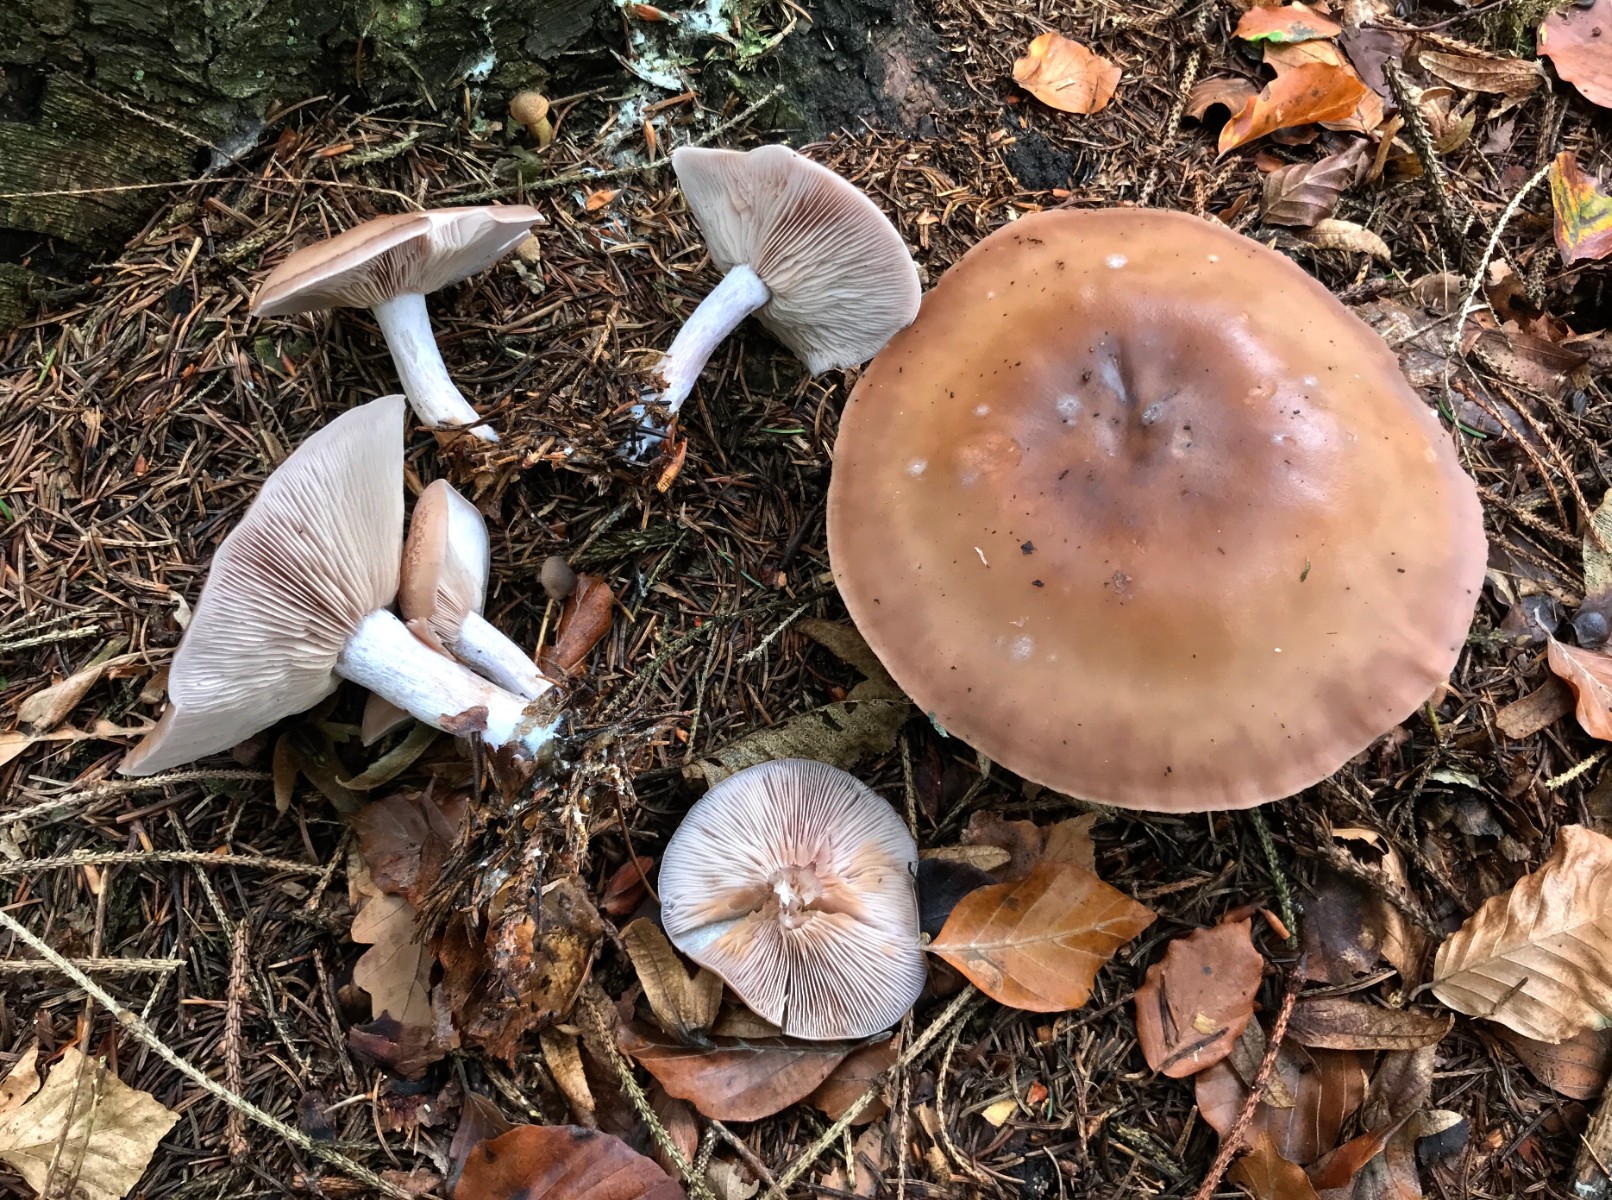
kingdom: Fungi
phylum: Basidiomycota
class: Agaricomycetes
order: Agaricales
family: Tricholomataceae
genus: Lepista
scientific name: Lepista nuda
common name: violet hekseringshat
